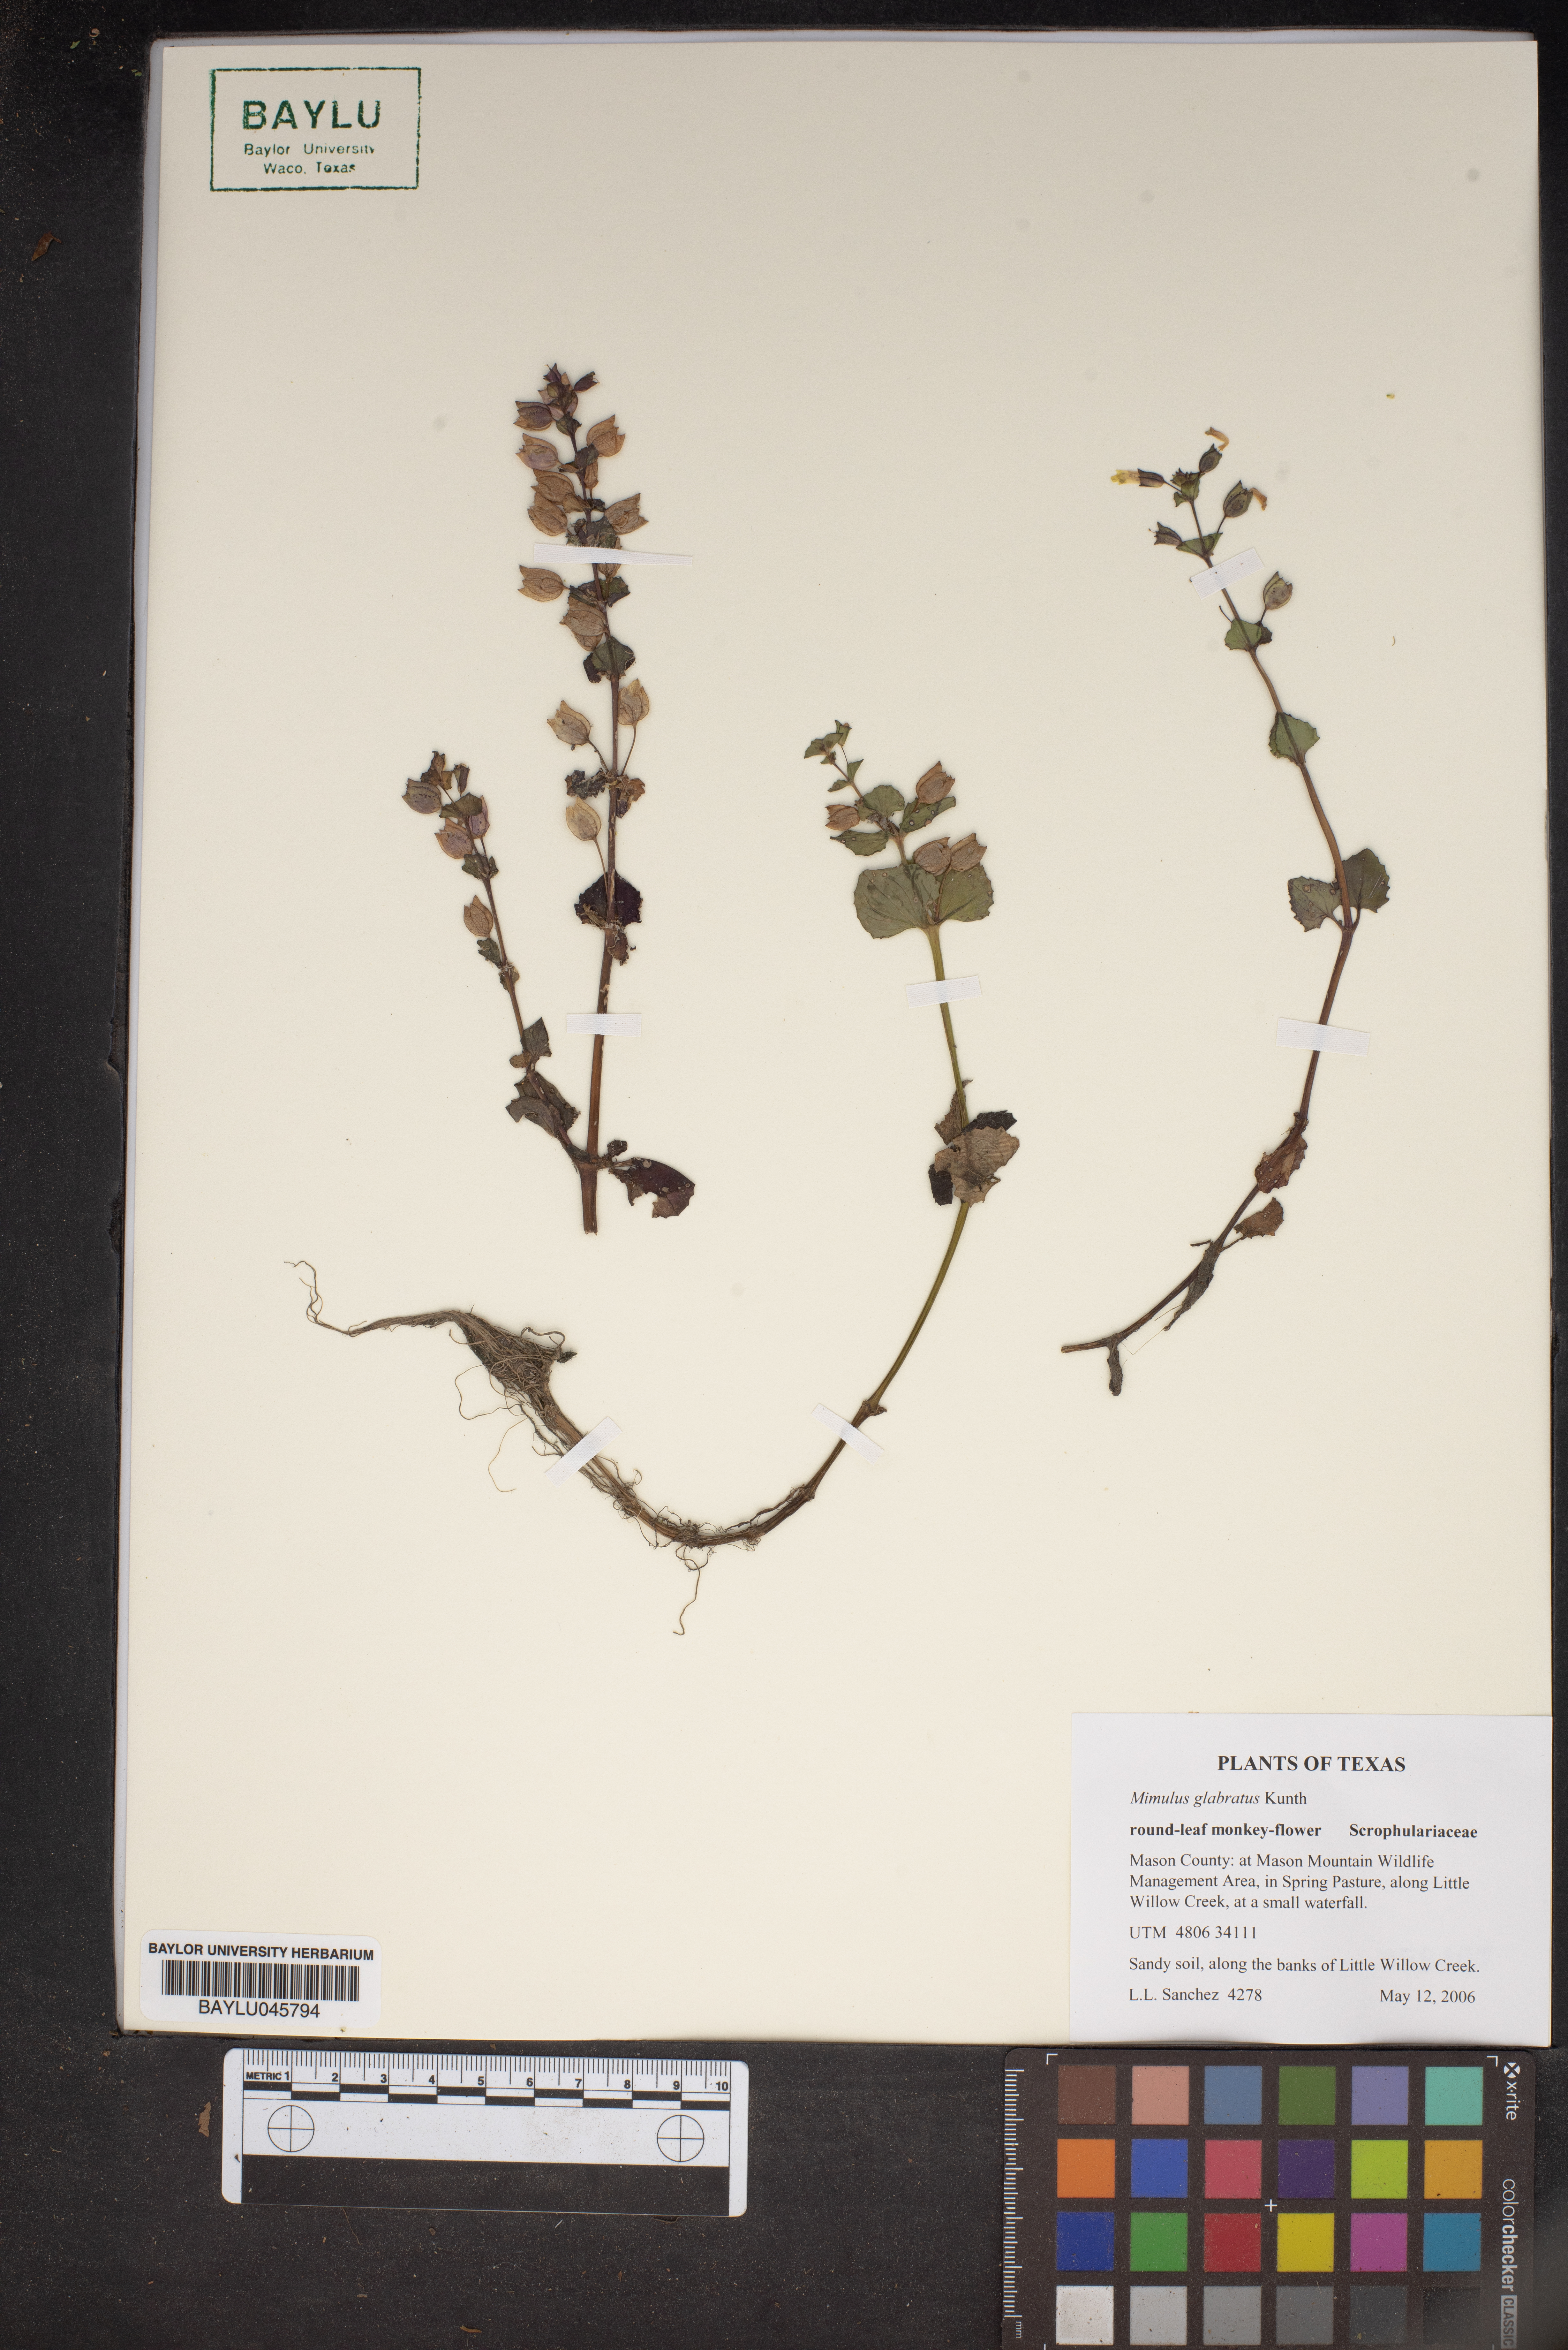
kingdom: Plantae
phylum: Tracheophyta
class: Magnoliopsida
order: Lamiales
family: Phrymaceae
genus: Erythranthe
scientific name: Erythranthe glabrata
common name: Round-leaved monkeyflower
